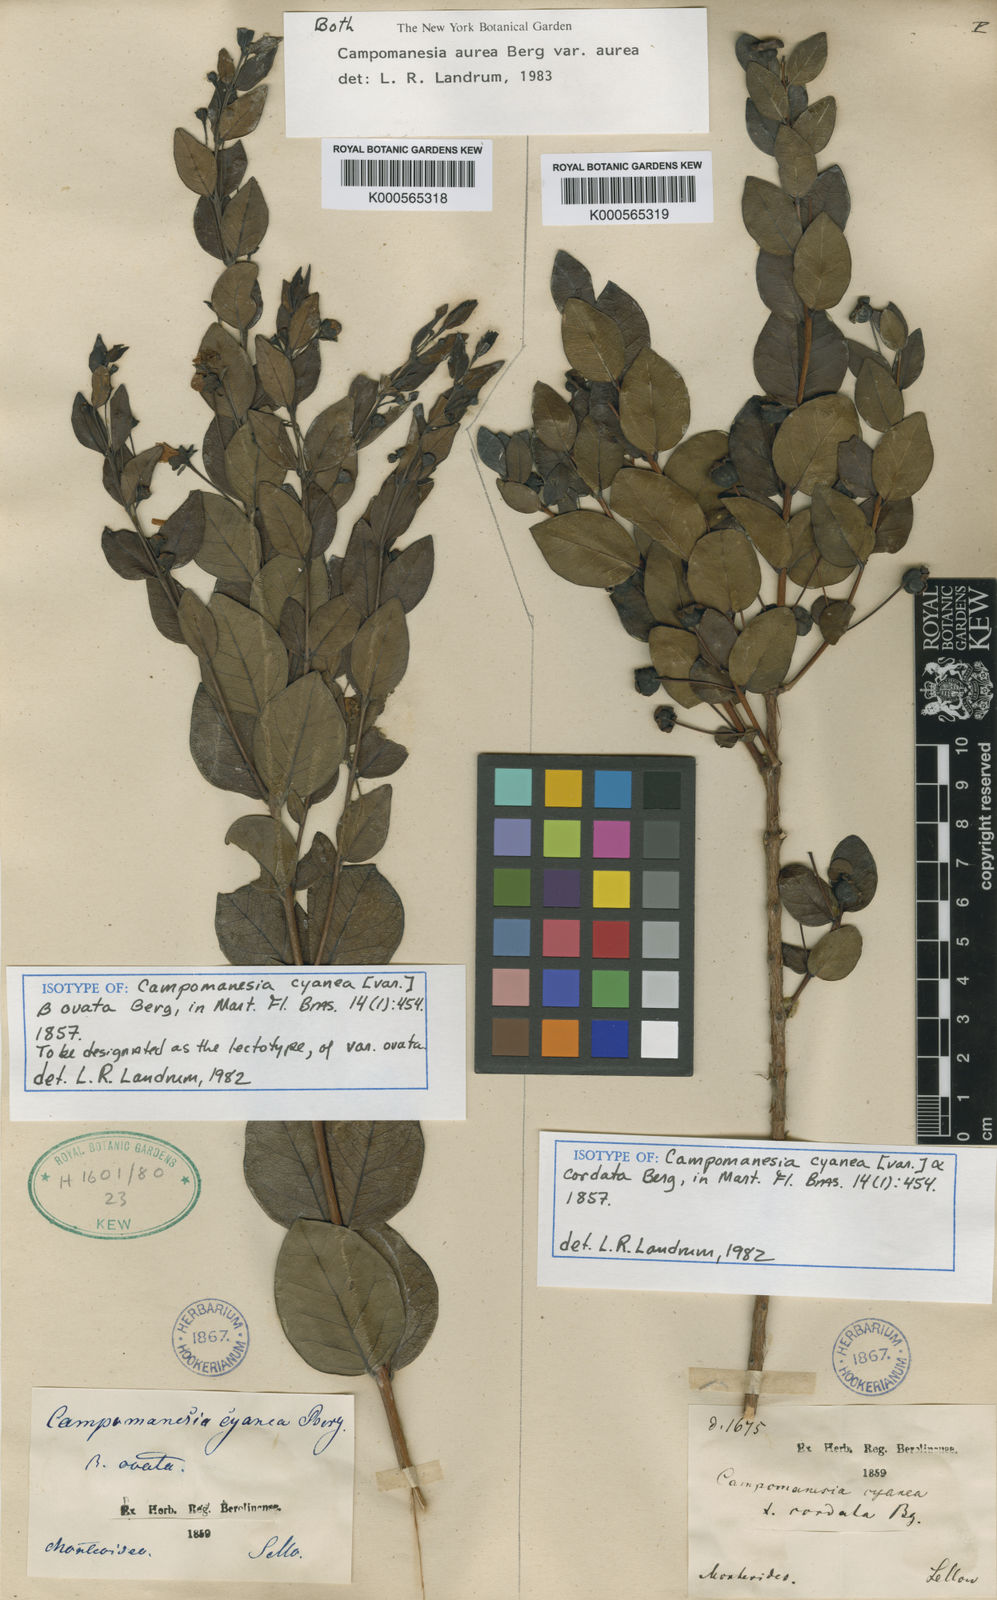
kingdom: Plantae
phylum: Tracheophyta
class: Magnoliopsida
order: Myrtales
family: Myrtaceae
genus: Campomanesia
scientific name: Campomanesia aurea
